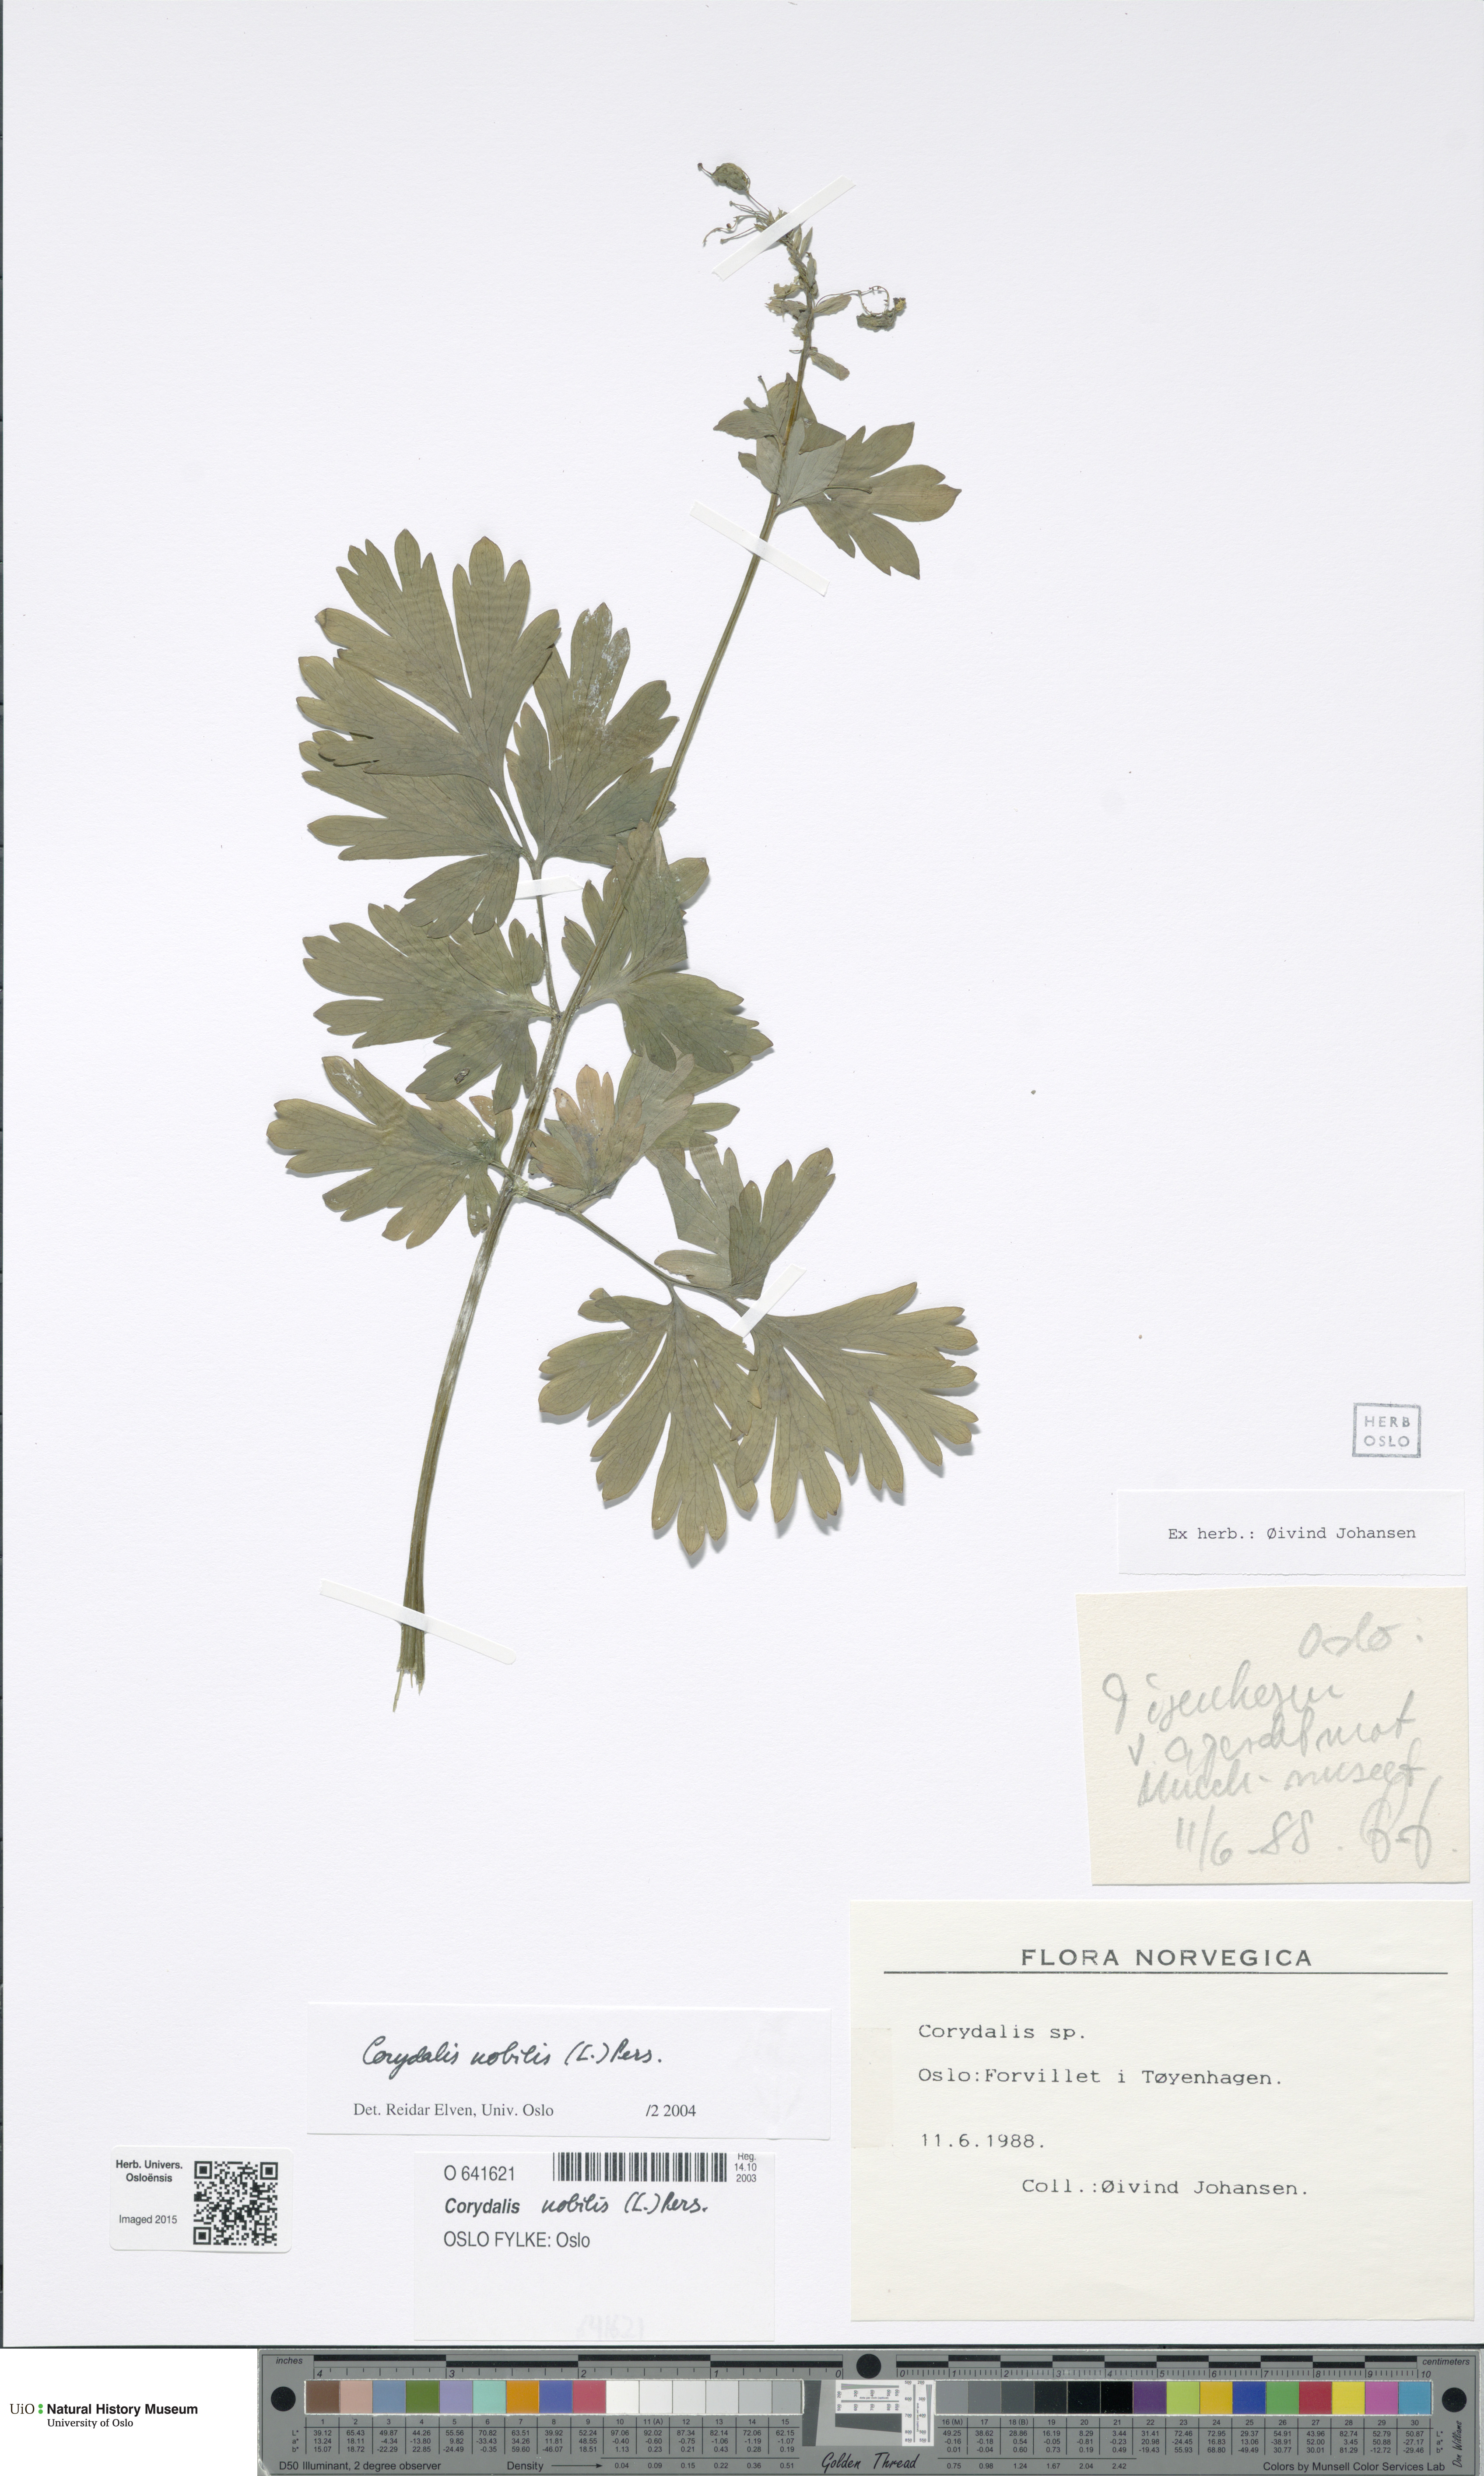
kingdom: Plantae
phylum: Tracheophyta
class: Magnoliopsida
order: Ranunculales
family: Papaveraceae
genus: Corydalis
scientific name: Corydalis nobilis
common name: Siberian corydalis
